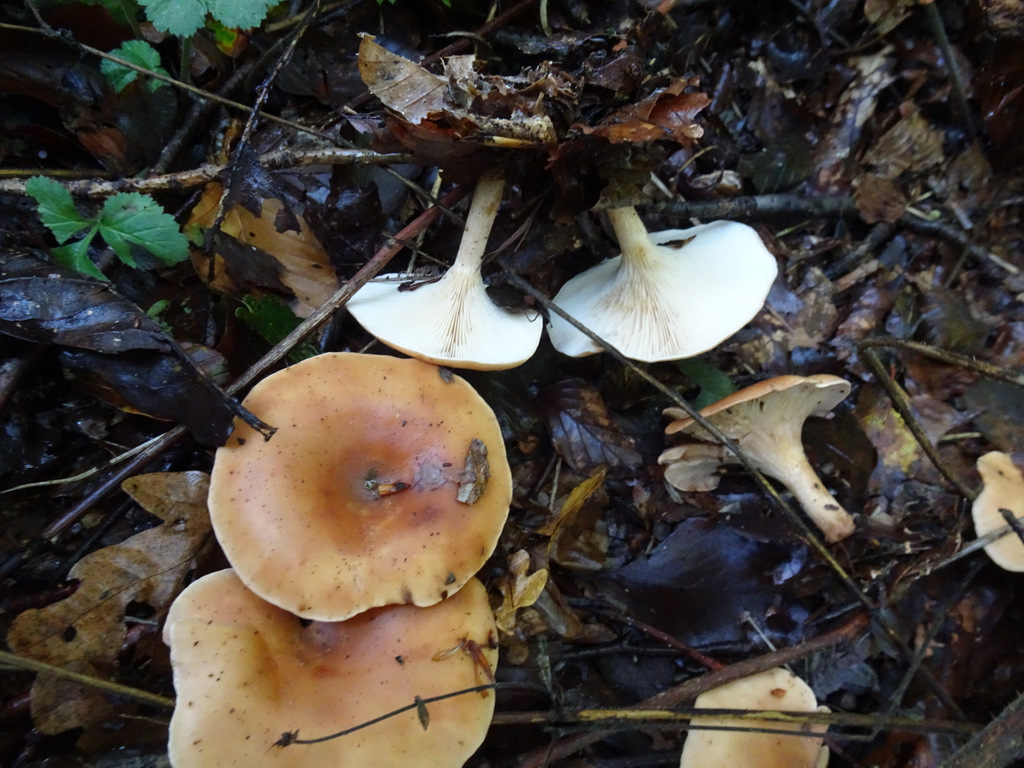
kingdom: Fungi
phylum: Basidiomycota
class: Agaricomycetes
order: Agaricales
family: Tricholomataceae
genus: Paralepista
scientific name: Paralepista flaccida
